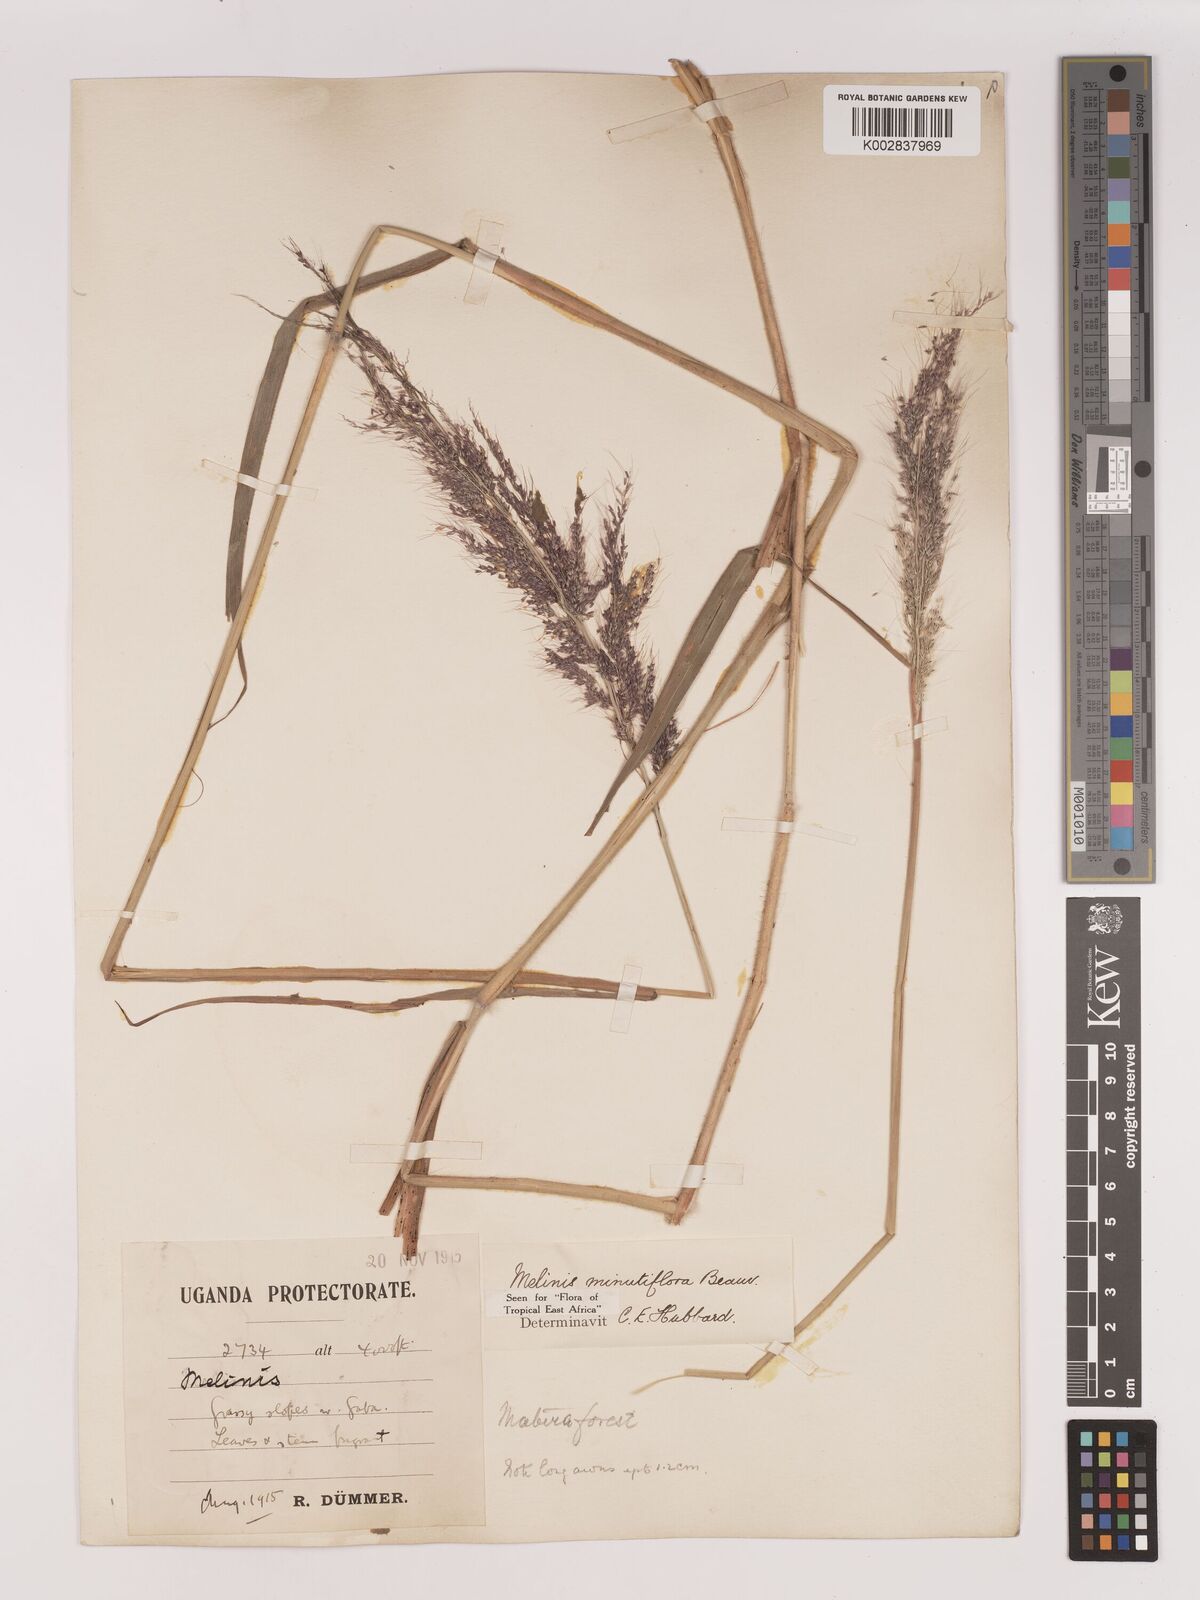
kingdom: Plantae
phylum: Tracheophyta
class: Liliopsida
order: Poales
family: Poaceae
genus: Melinis
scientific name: Melinis minutiflora
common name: Molassesgrass
